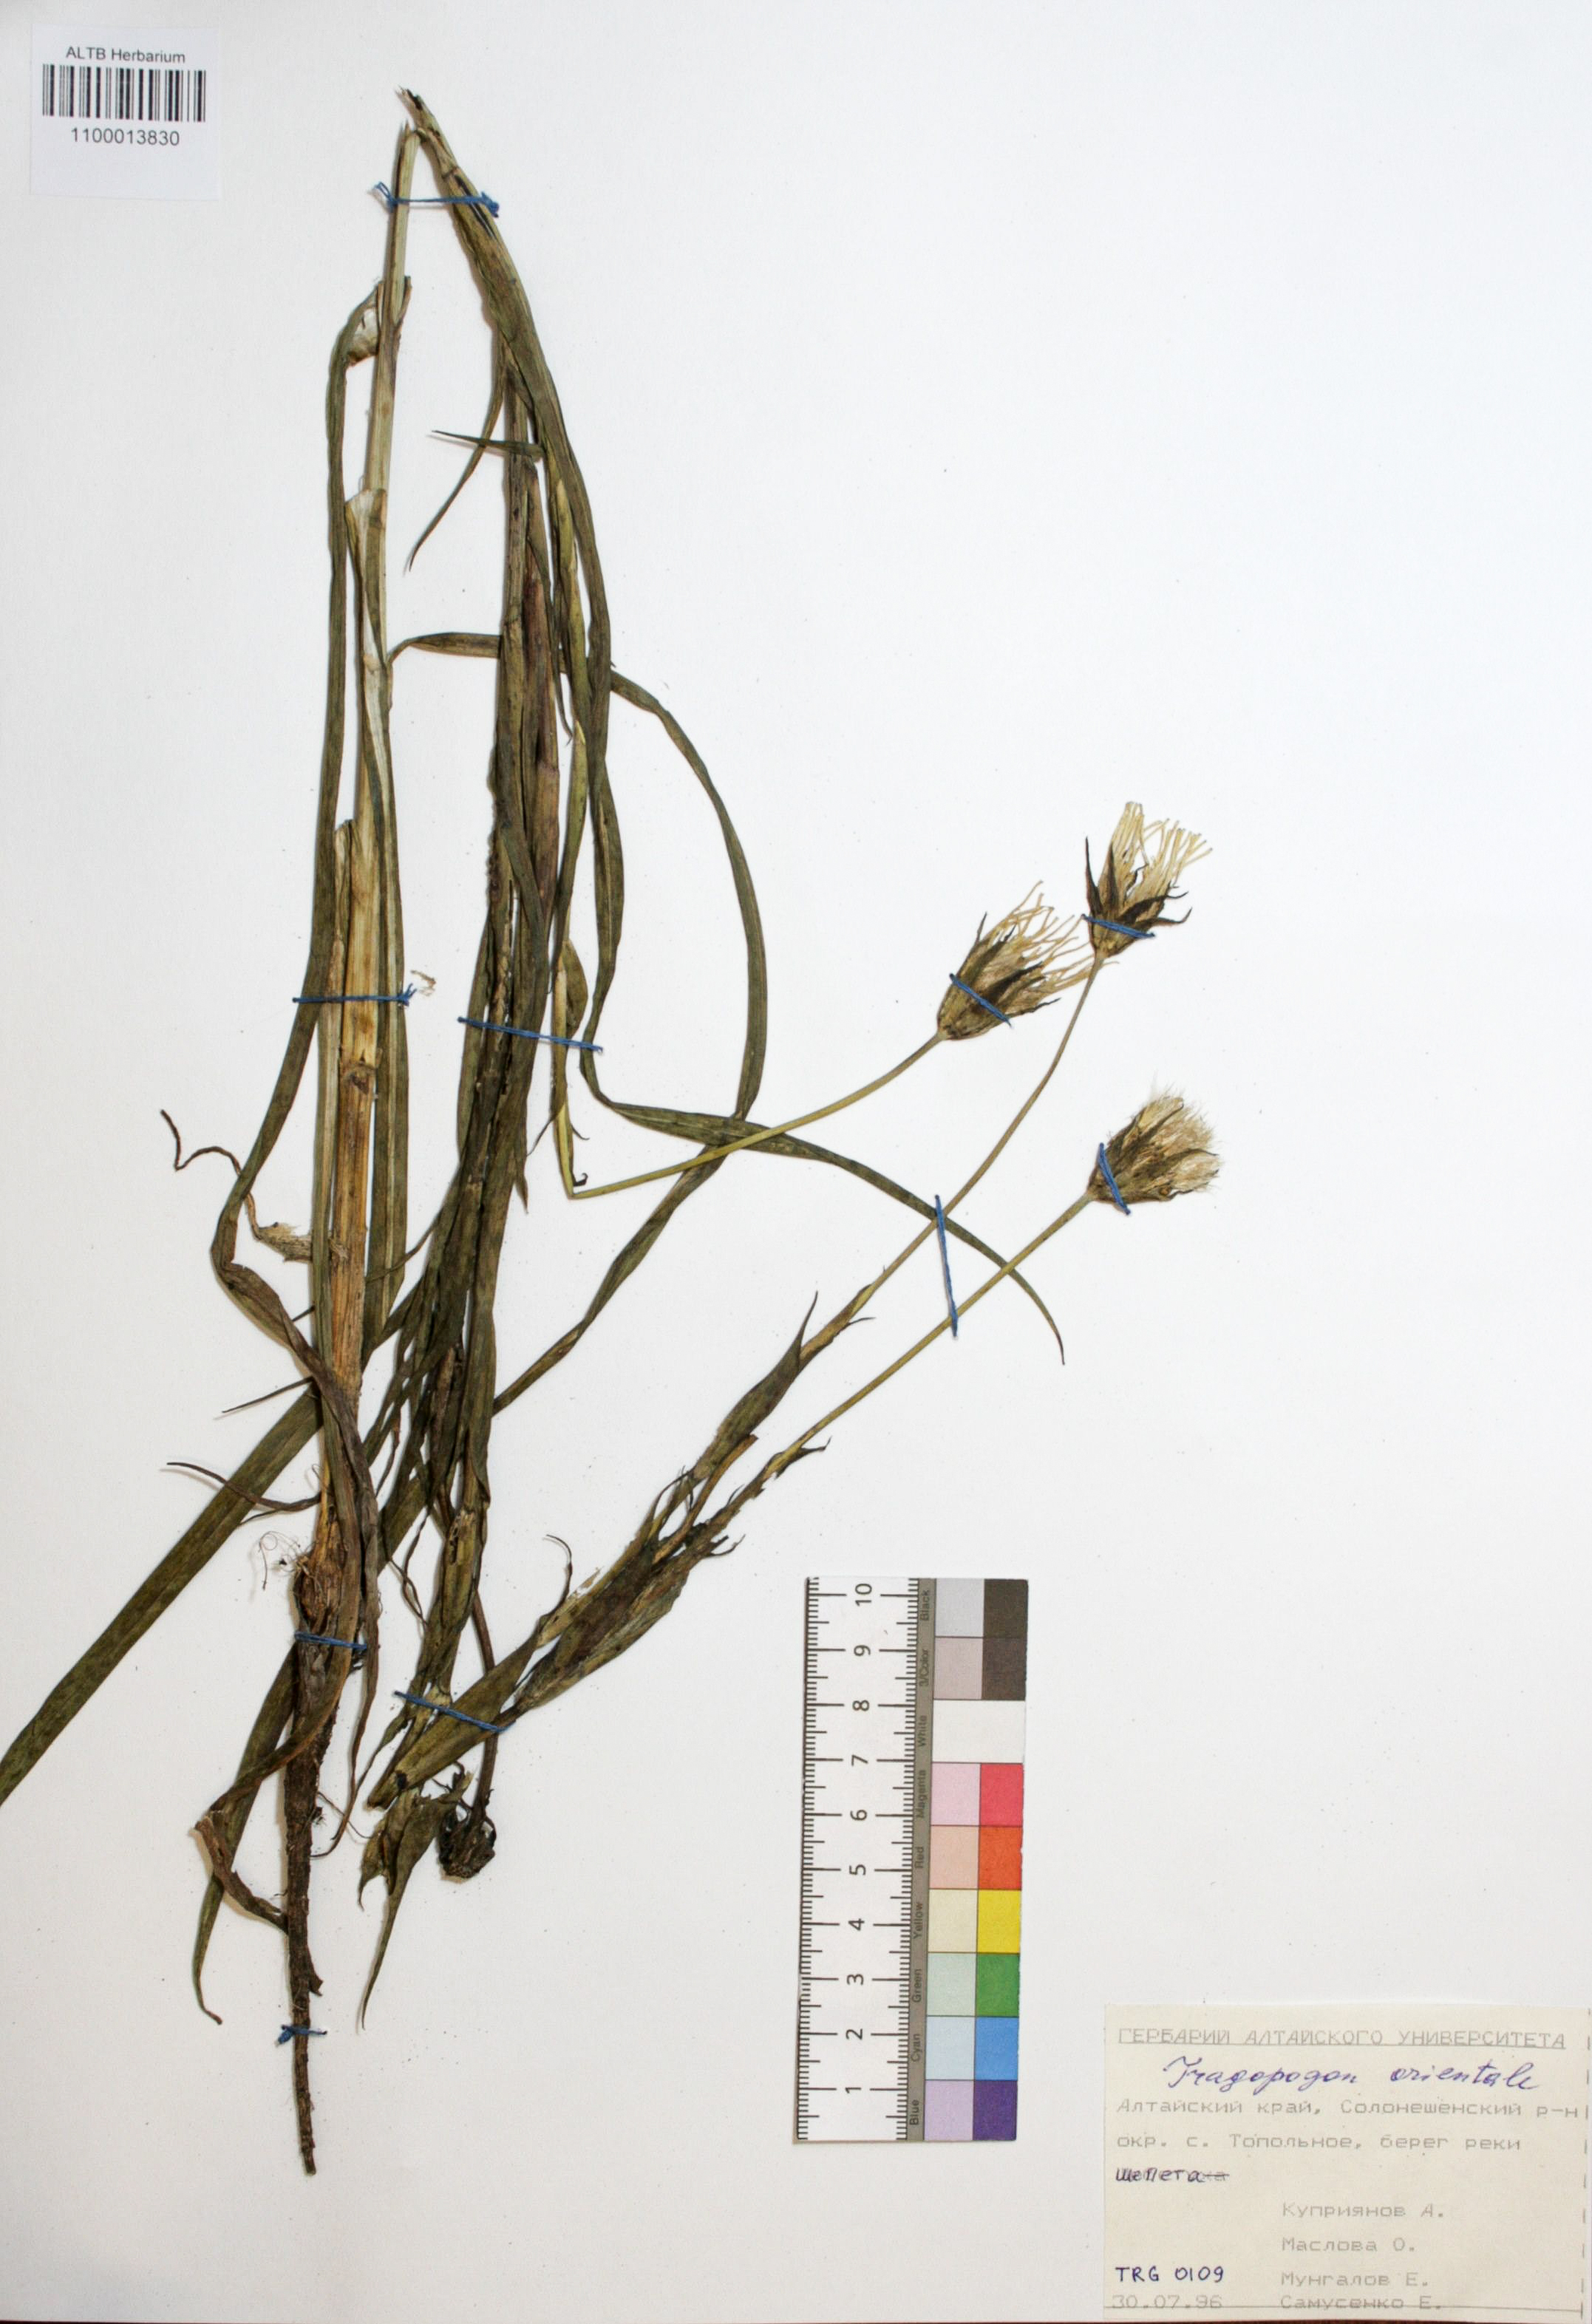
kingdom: Plantae
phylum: Tracheophyta
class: Magnoliopsida
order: Asterales
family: Asteraceae
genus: Tragopogon
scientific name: Tragopogon orientalis
